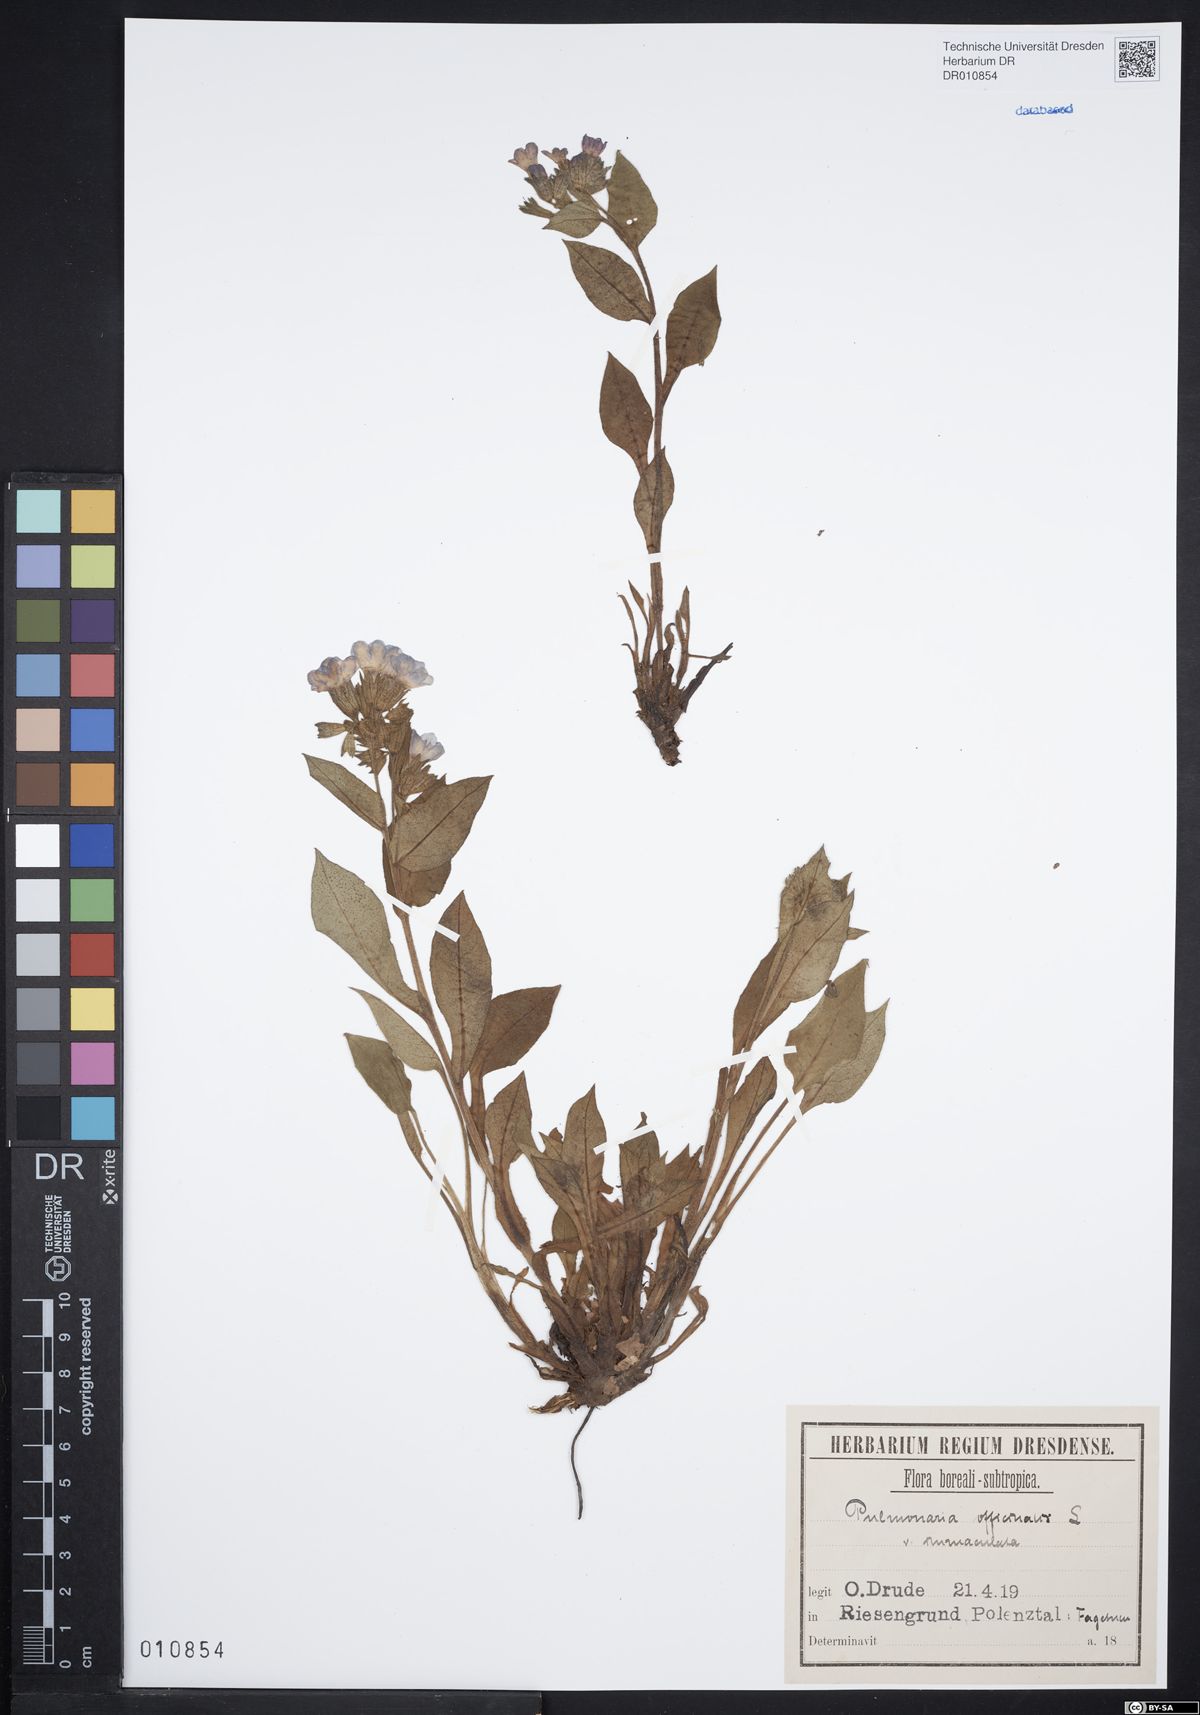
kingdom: Plantae
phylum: Tracheophyta
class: Magnoliopsida
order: Boraginales
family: Boraginaceae
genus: Pulmonaria
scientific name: Pulmonaria obscura
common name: Suffolk lungwort
